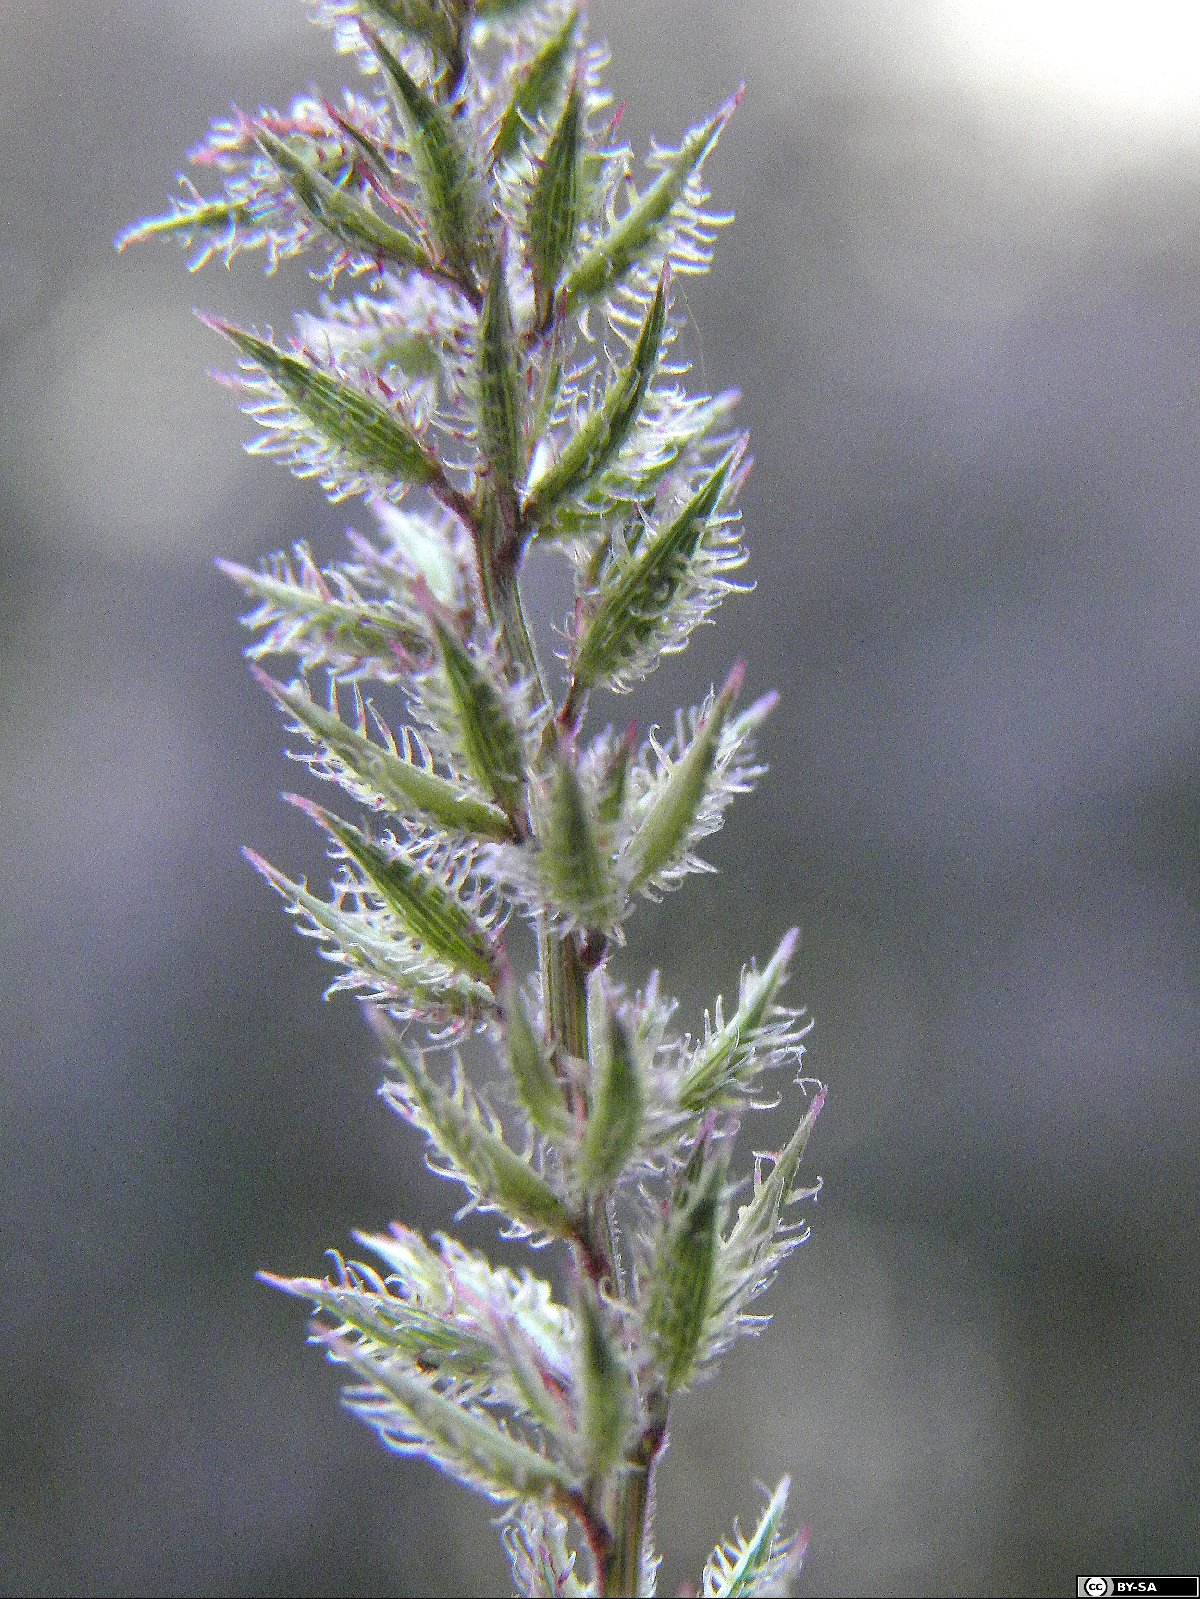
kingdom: Plantae
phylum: Tracheophyta
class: Liliopsida
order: Poales
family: Poaceae
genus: Tragus
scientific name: Tragus racemosus
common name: European bur-grass
